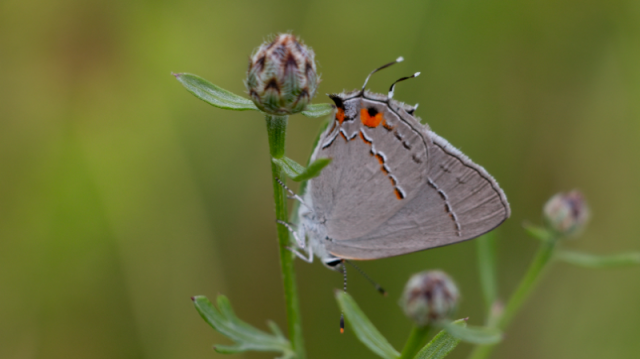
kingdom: Animalia
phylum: Arthropoda
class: Insecta
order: Lepidoptera
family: Lycaenidae
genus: Strymon
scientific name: Strymon melinus
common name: Gray Hairstreak
